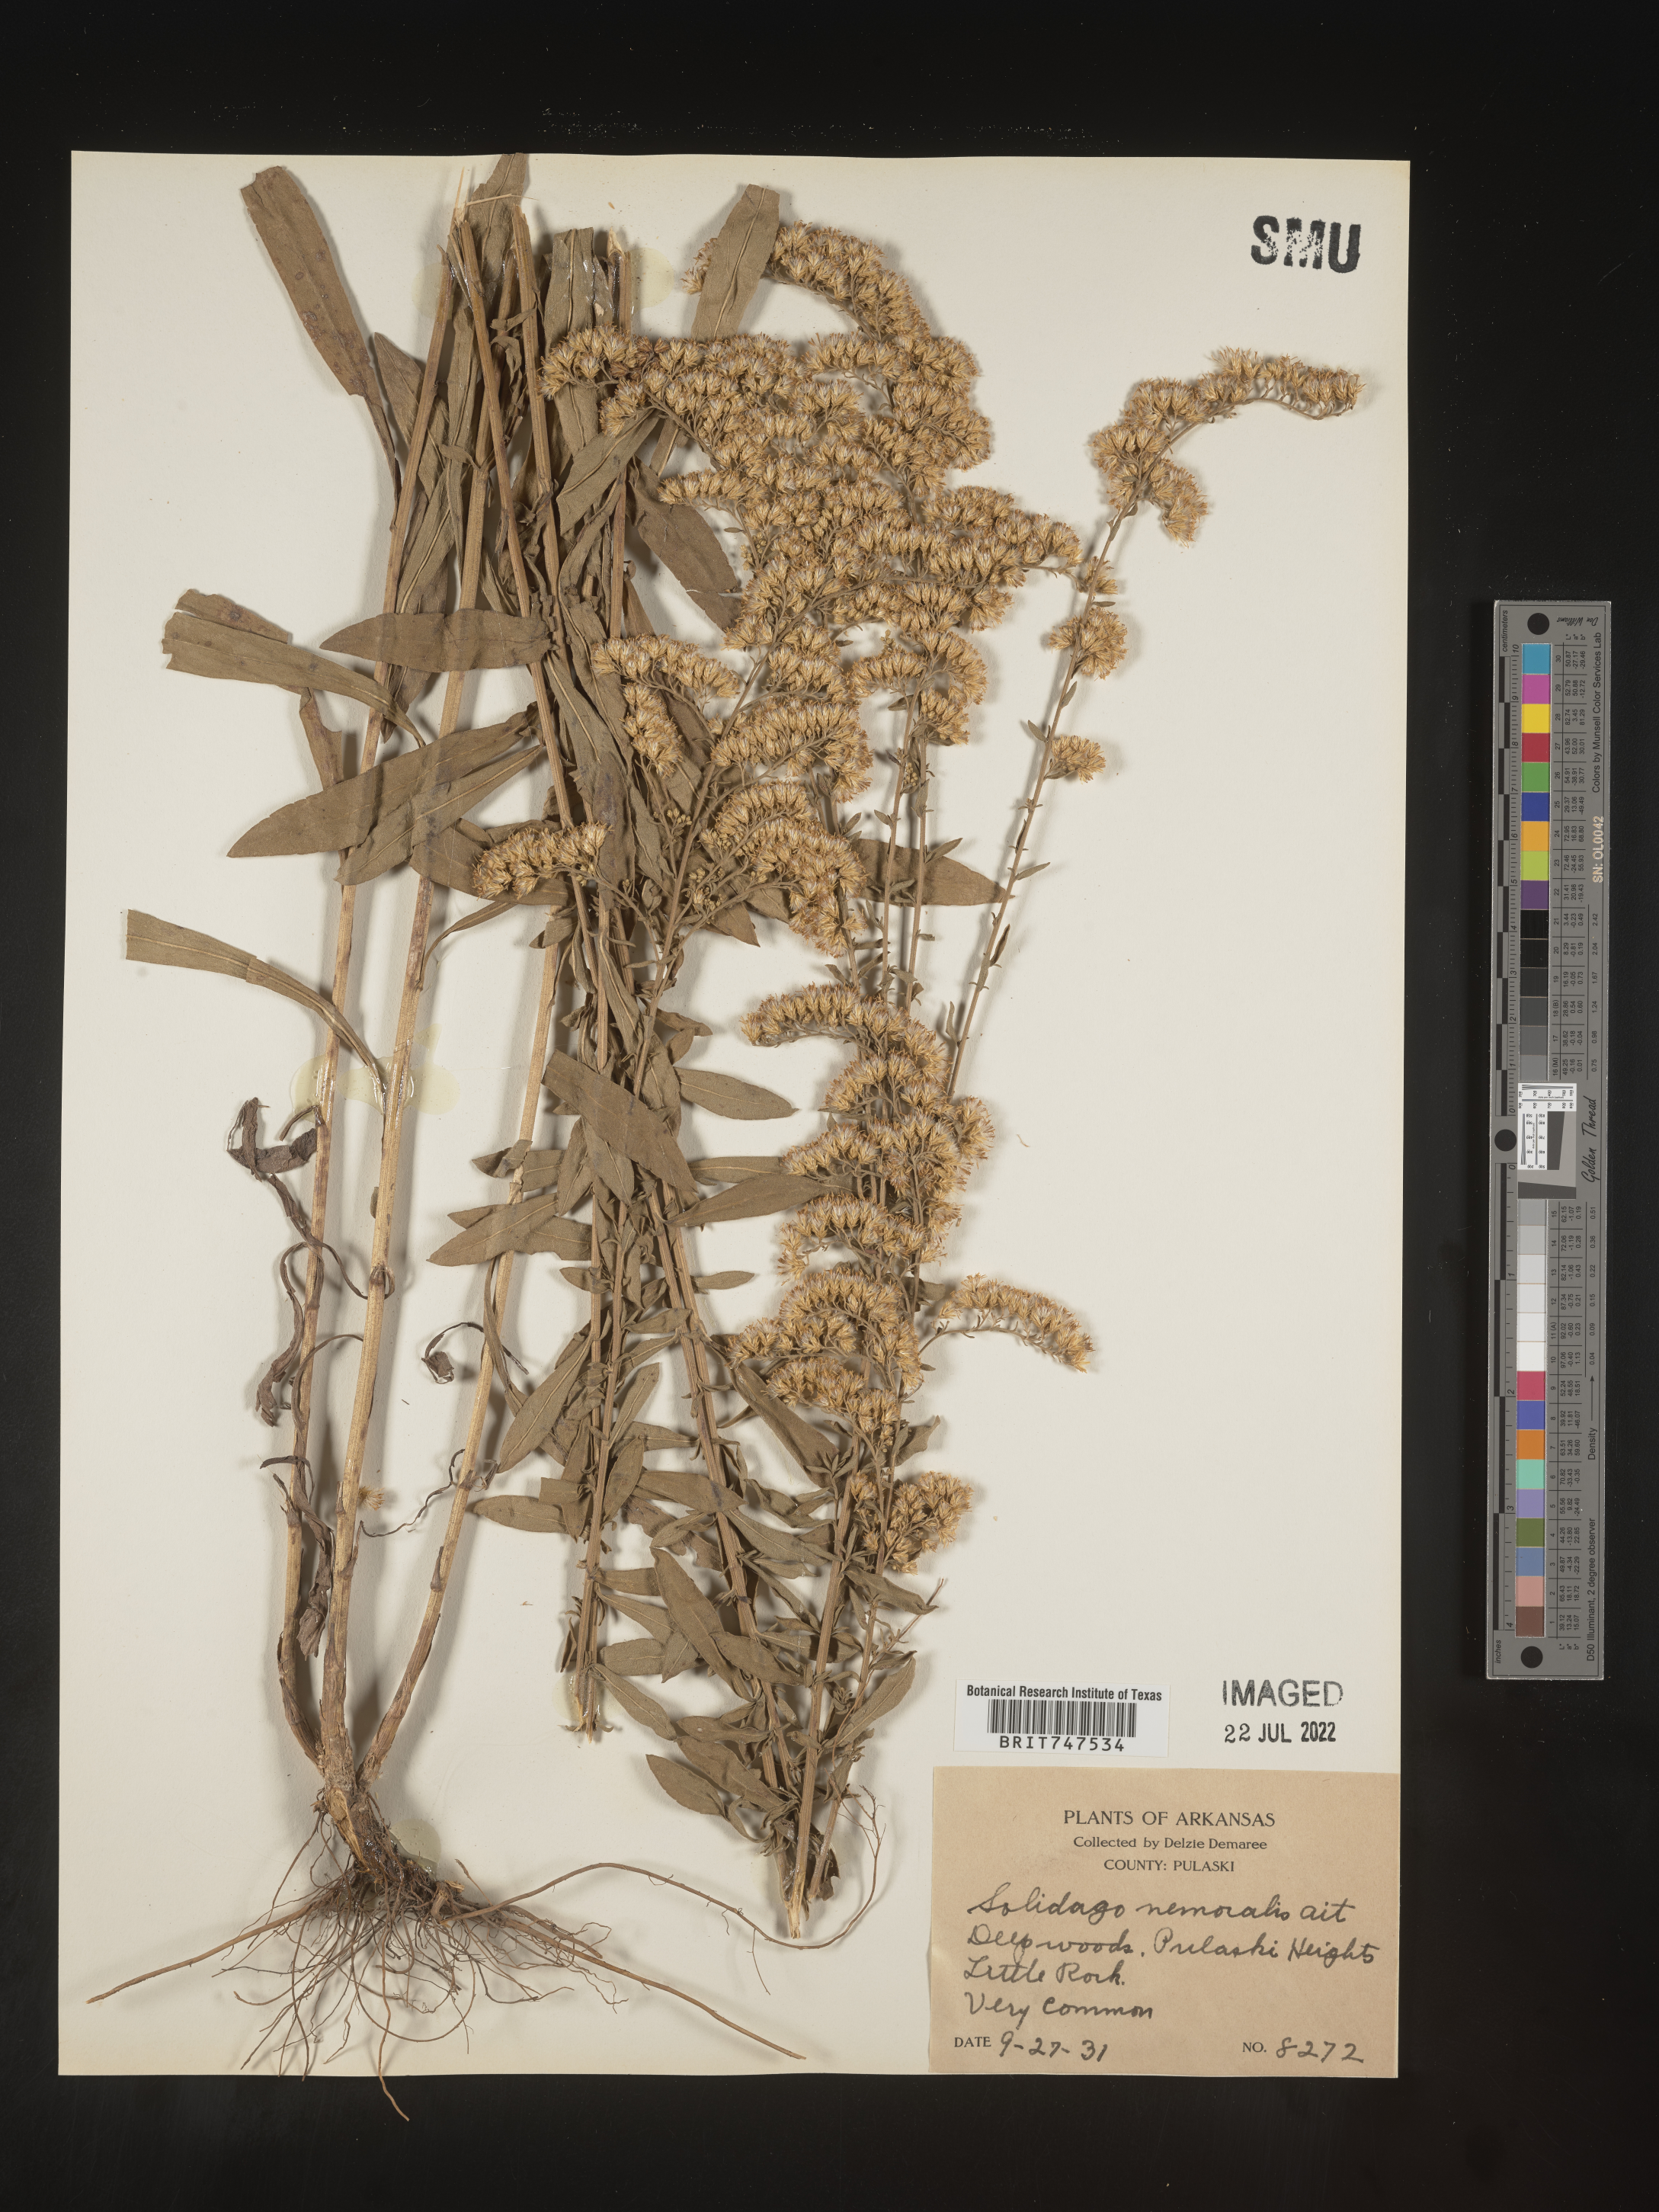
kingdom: Plantae
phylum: Tracheophyta
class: Magnoliopsida
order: Asterales
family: Asteraceae
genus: Solidago
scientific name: Solidago nemoralis
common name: Grey goldenrod
